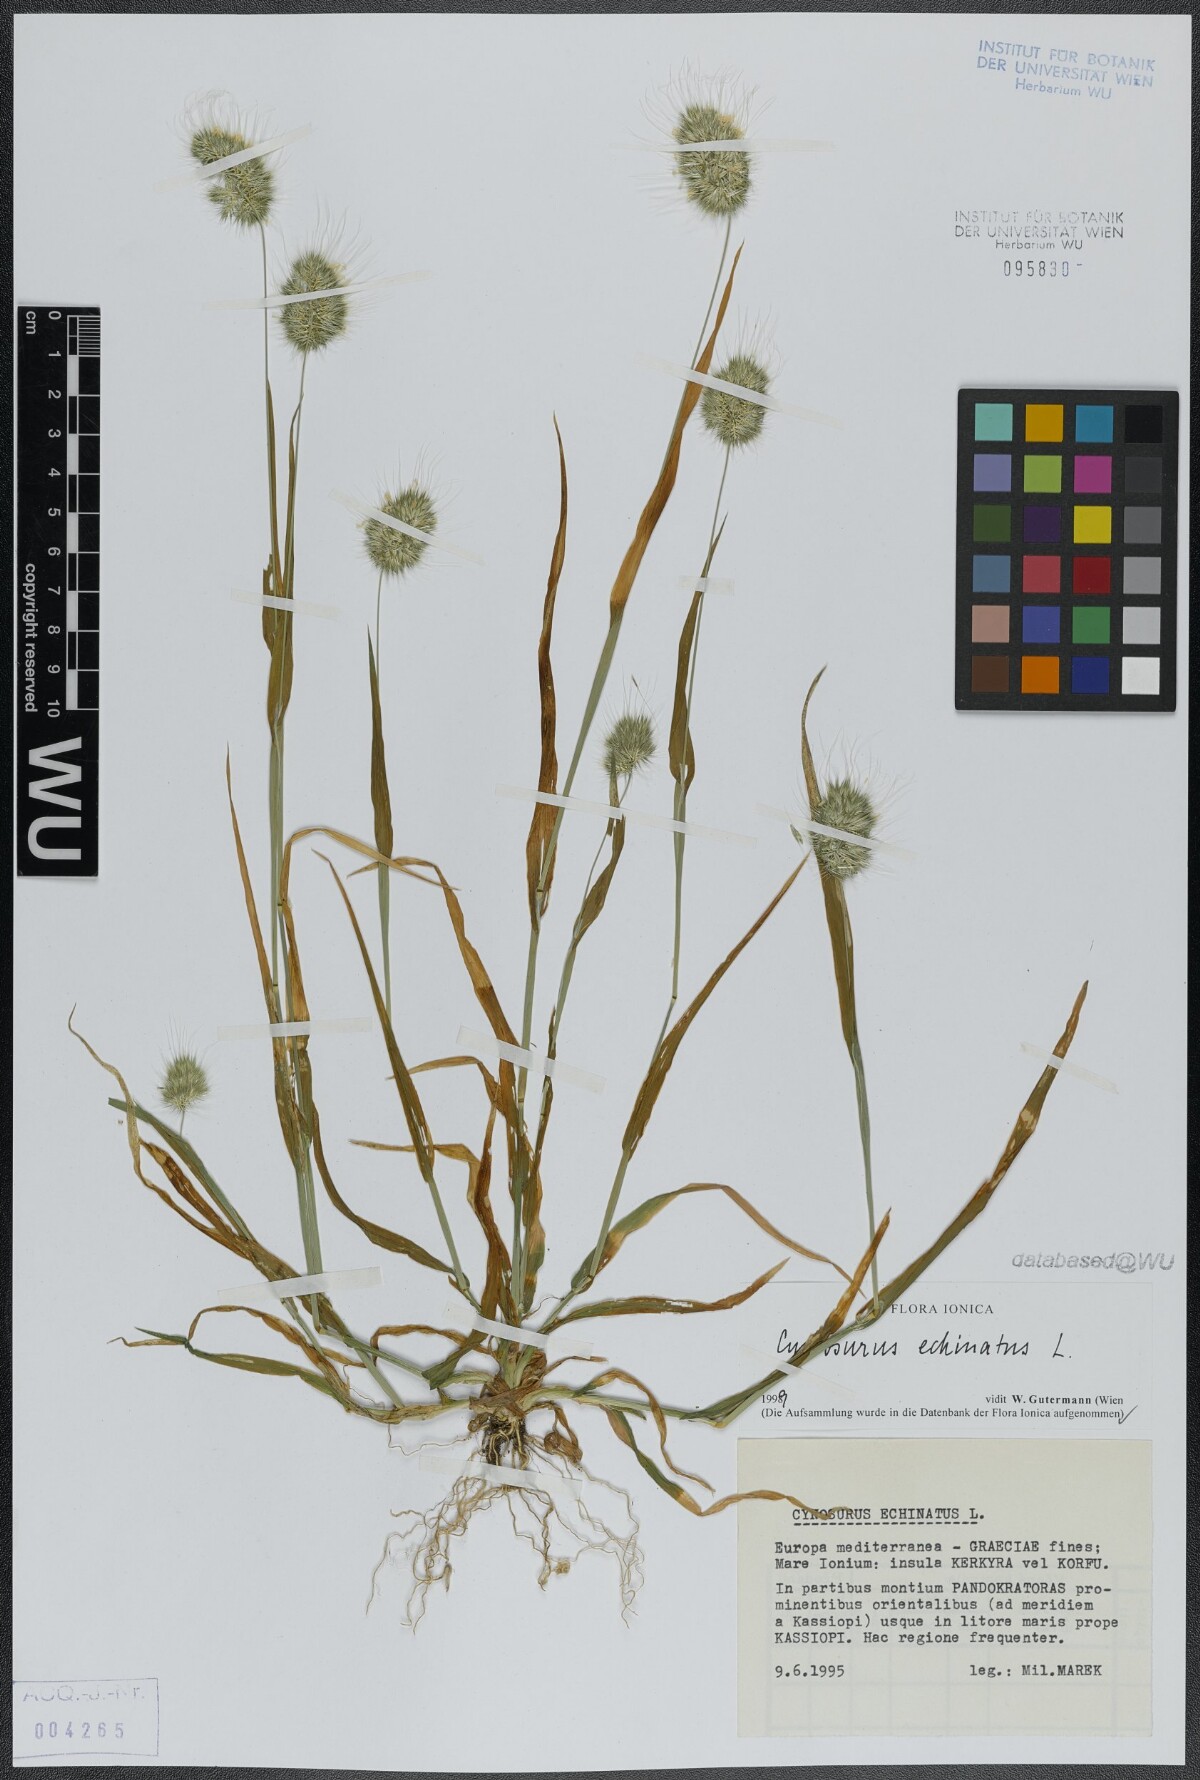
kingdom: Plantae
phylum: Tracheophyta
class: Liliopsida
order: Poales
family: Poaceae
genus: Cynosurus
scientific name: Cynosurus echinatus
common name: Rough dog's-tail
